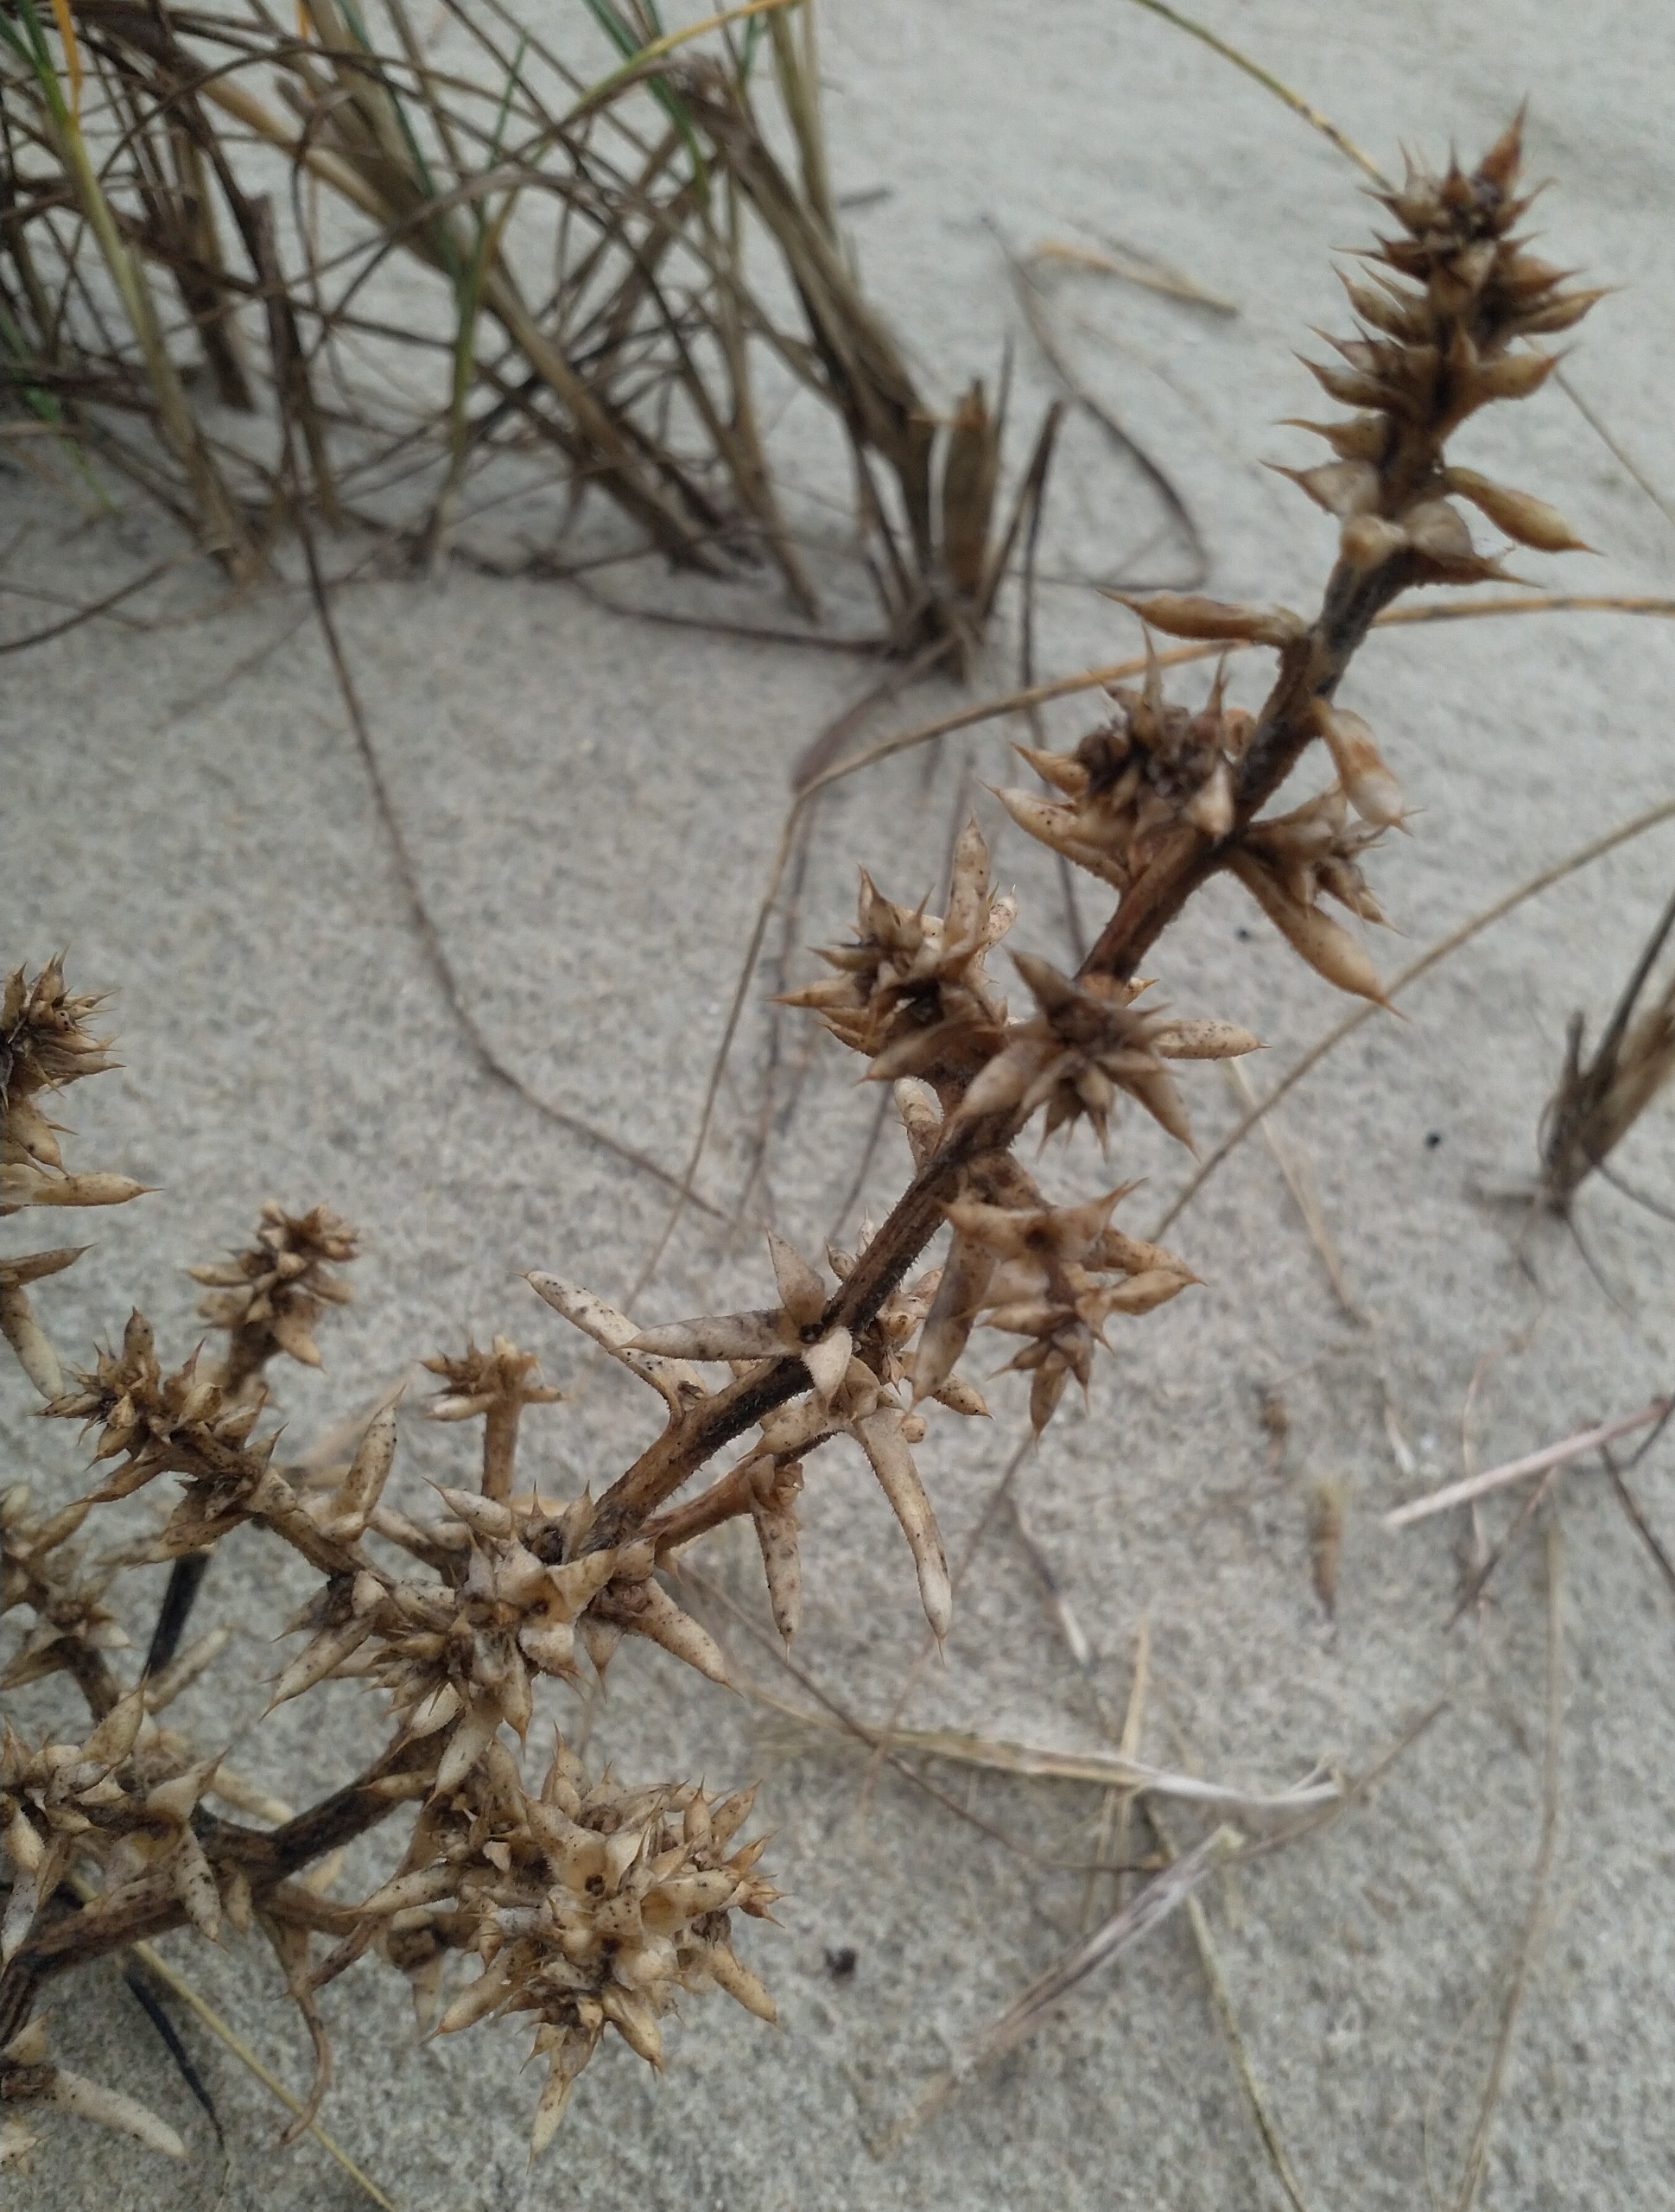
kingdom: Plantae
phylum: Tracheophyta
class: Magnoliopsida
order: Caryophyllales
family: Amaranthaceae
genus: Salsola
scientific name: Salsola kali
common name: Sodaurt
